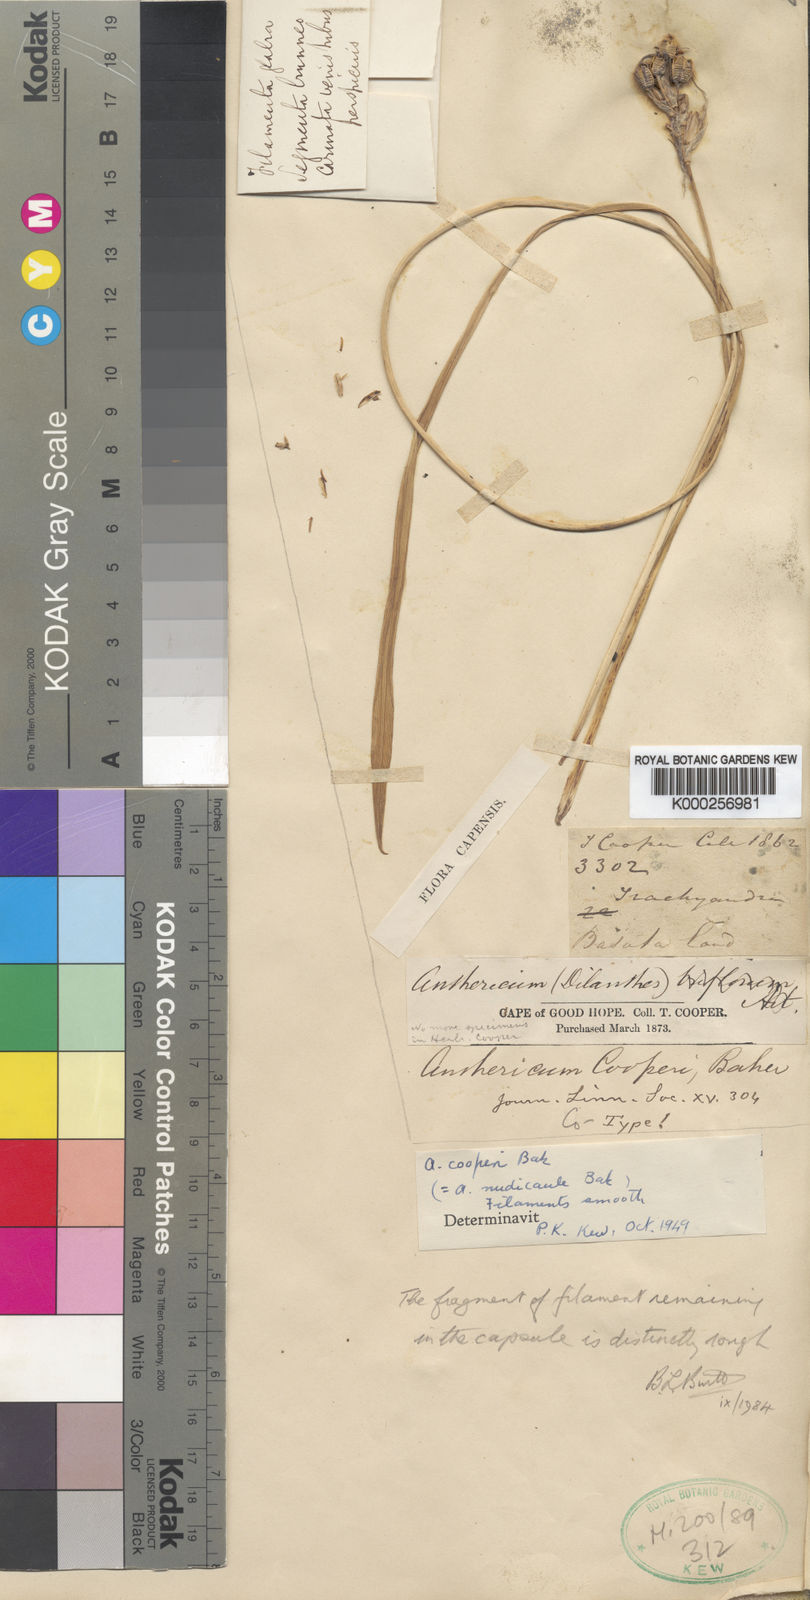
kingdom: Plantae
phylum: Tracheophyta
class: Liliopsida
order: Asparagales
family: Asparagaceae
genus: Chlorophytum
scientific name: Chlorophytum cooperi
